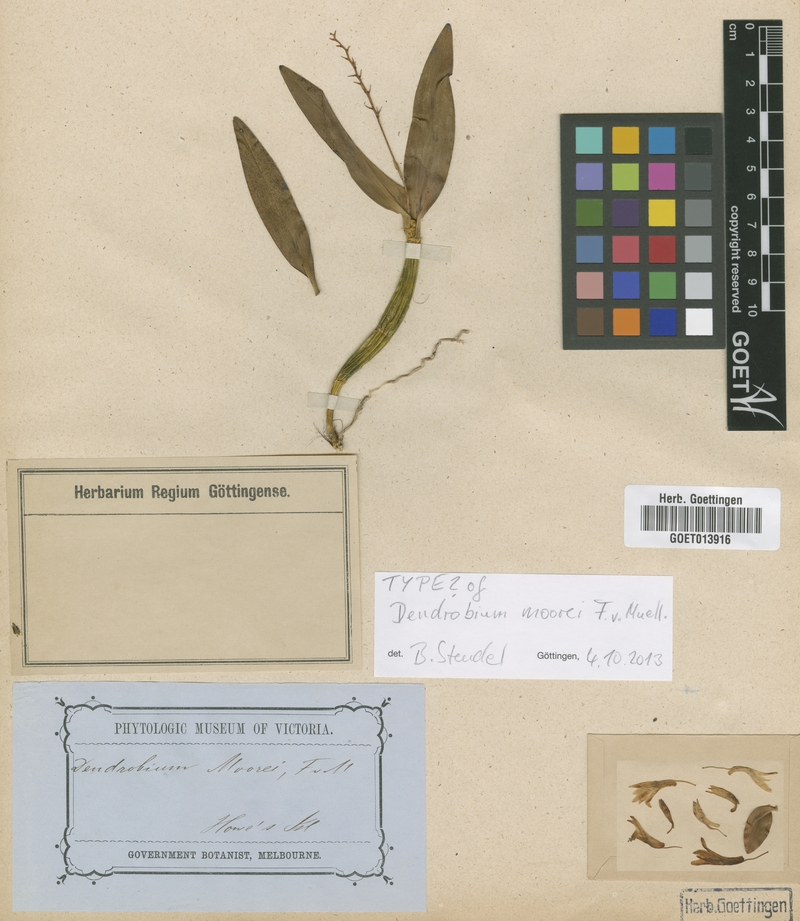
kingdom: Plantae
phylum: Tracheophyta
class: Liliopsida
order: Asparagales
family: Orchidaceae
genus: Dendrobium
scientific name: Dendrobium moorei
